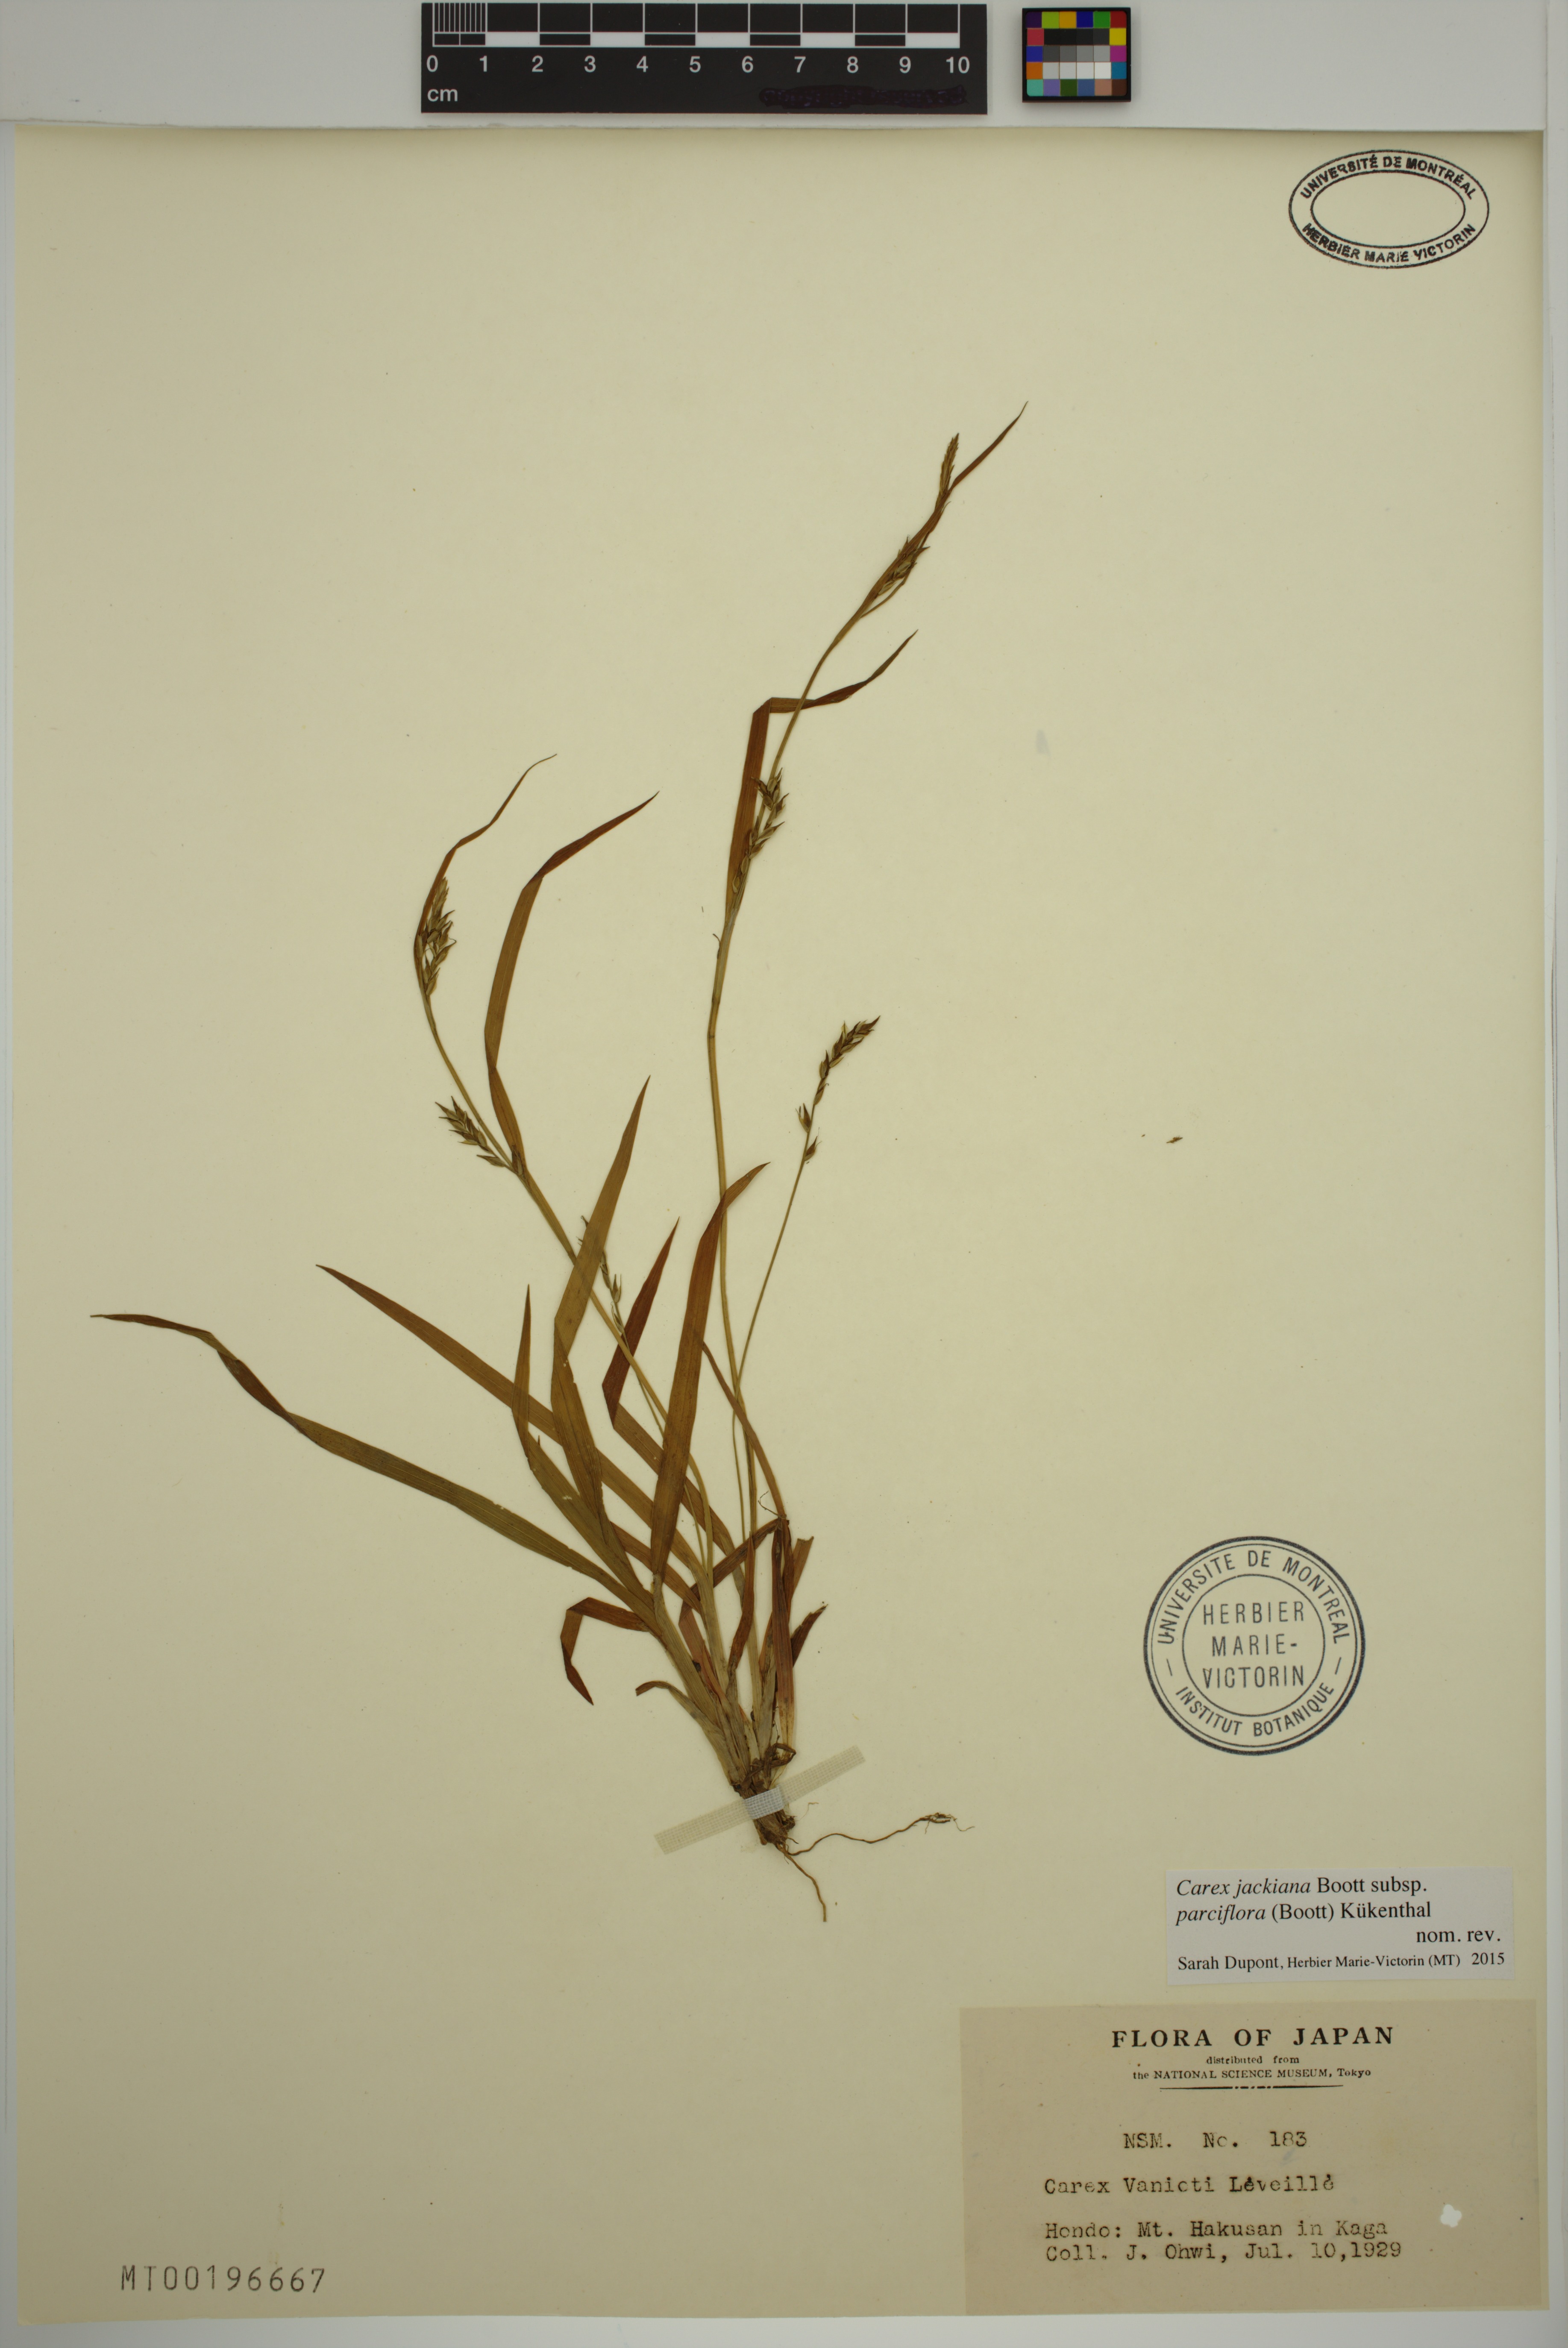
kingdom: Plantae
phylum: Tracheophyta
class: Liliopsida
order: Poales
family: Cyperaceae
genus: Carex
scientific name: Carex parciflora
